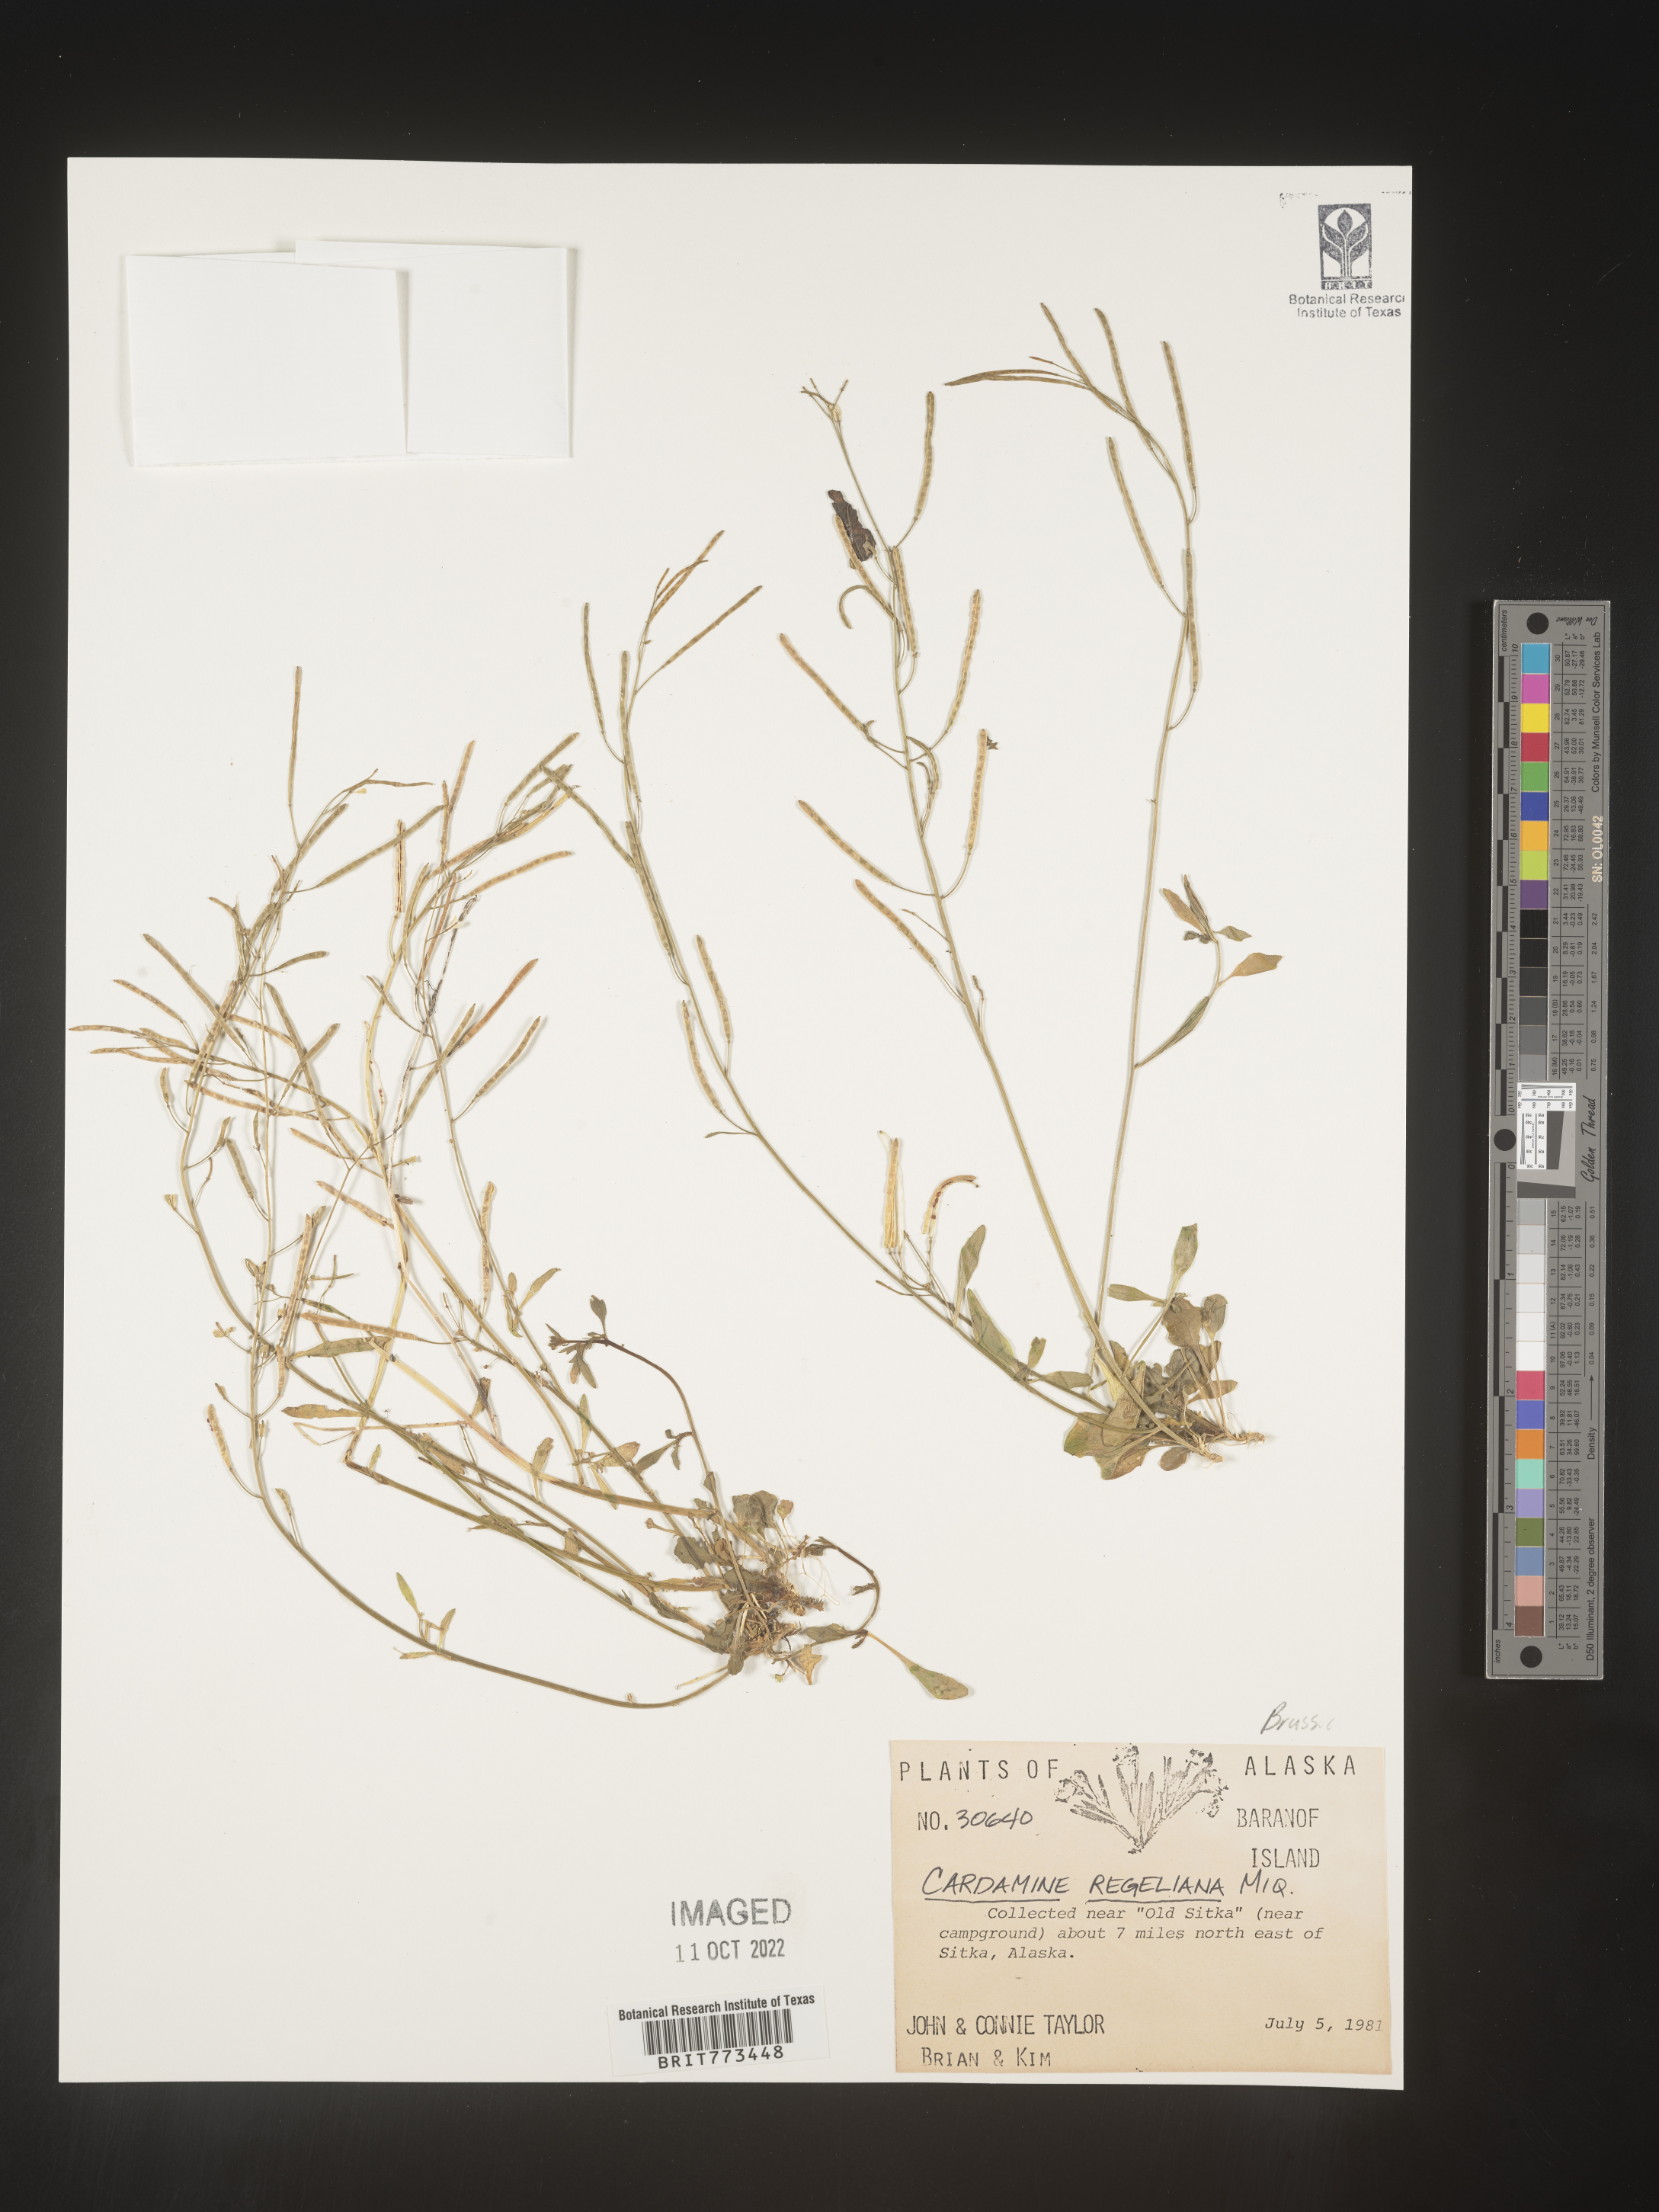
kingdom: Plantae
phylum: Tracheophyta
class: Magnoliopsida
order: Brassicales
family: Brassicaceae
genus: Cardamine
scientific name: Cardamine
